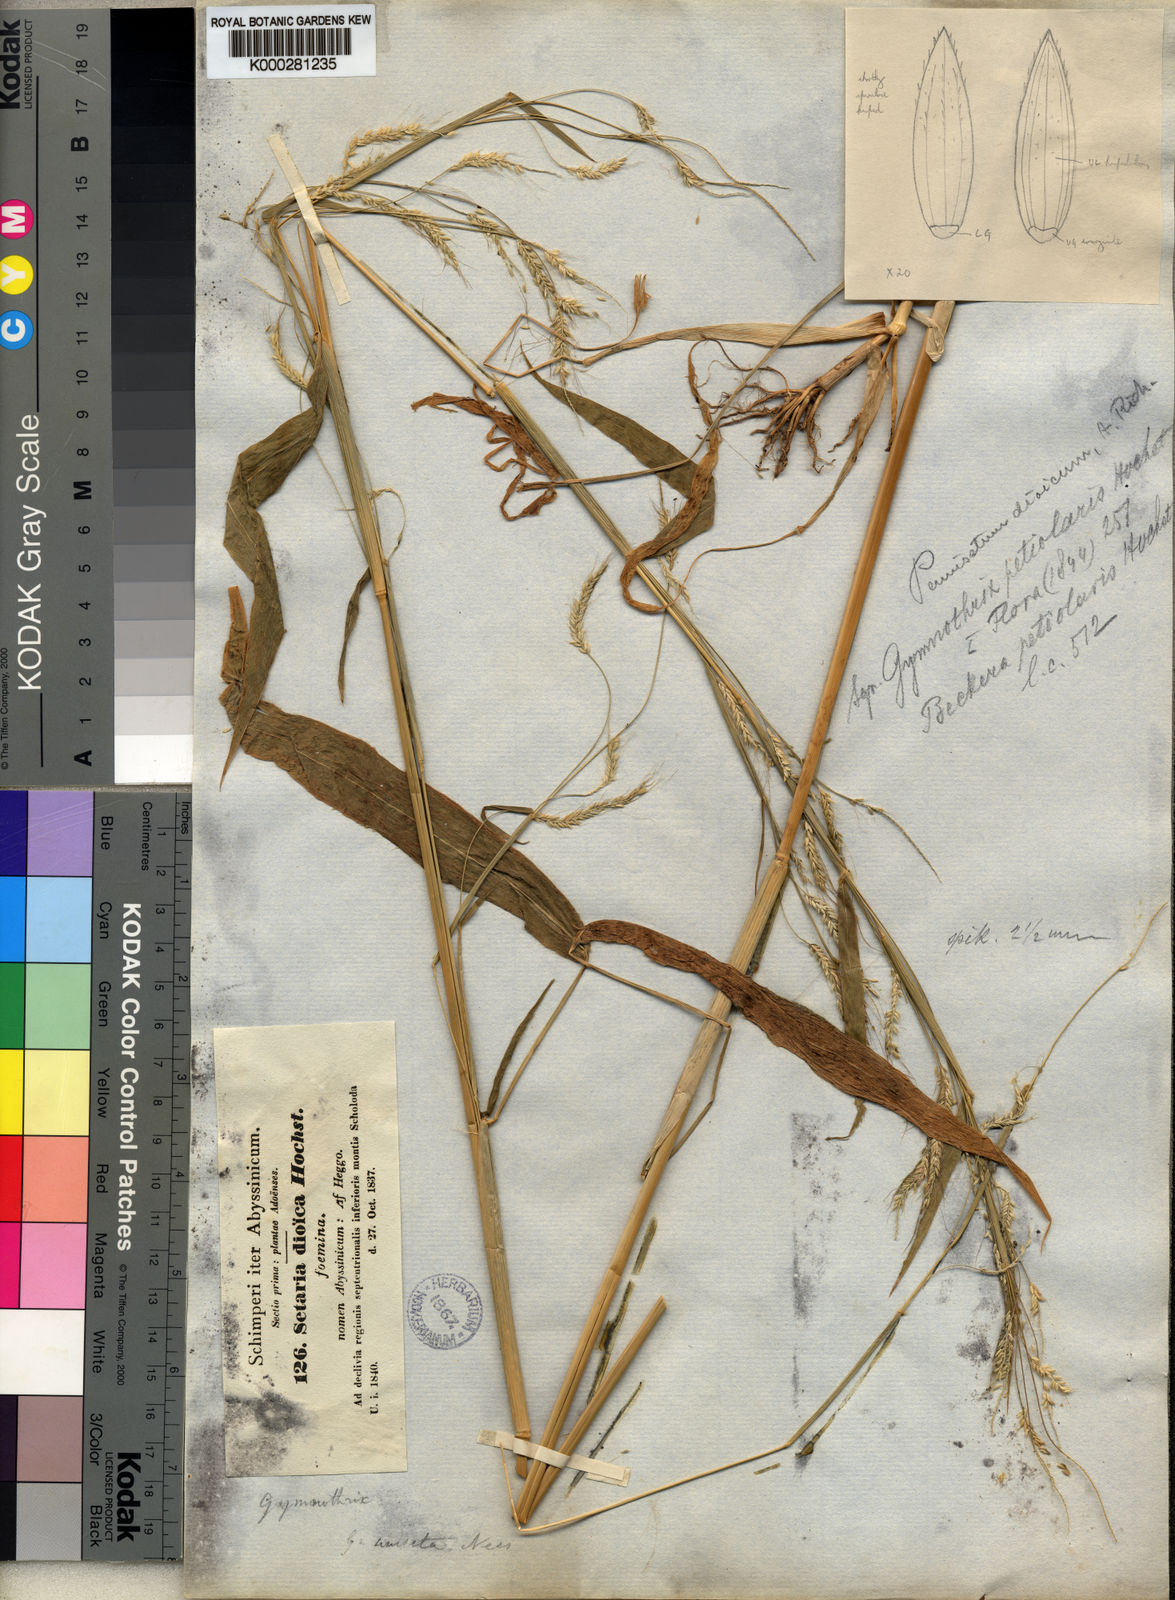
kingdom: Plantae
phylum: Tracheophyta
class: Liliopsida
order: Poales
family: Poaceae
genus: Cenchrus
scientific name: Cenchrus petiolaris
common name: Grass
